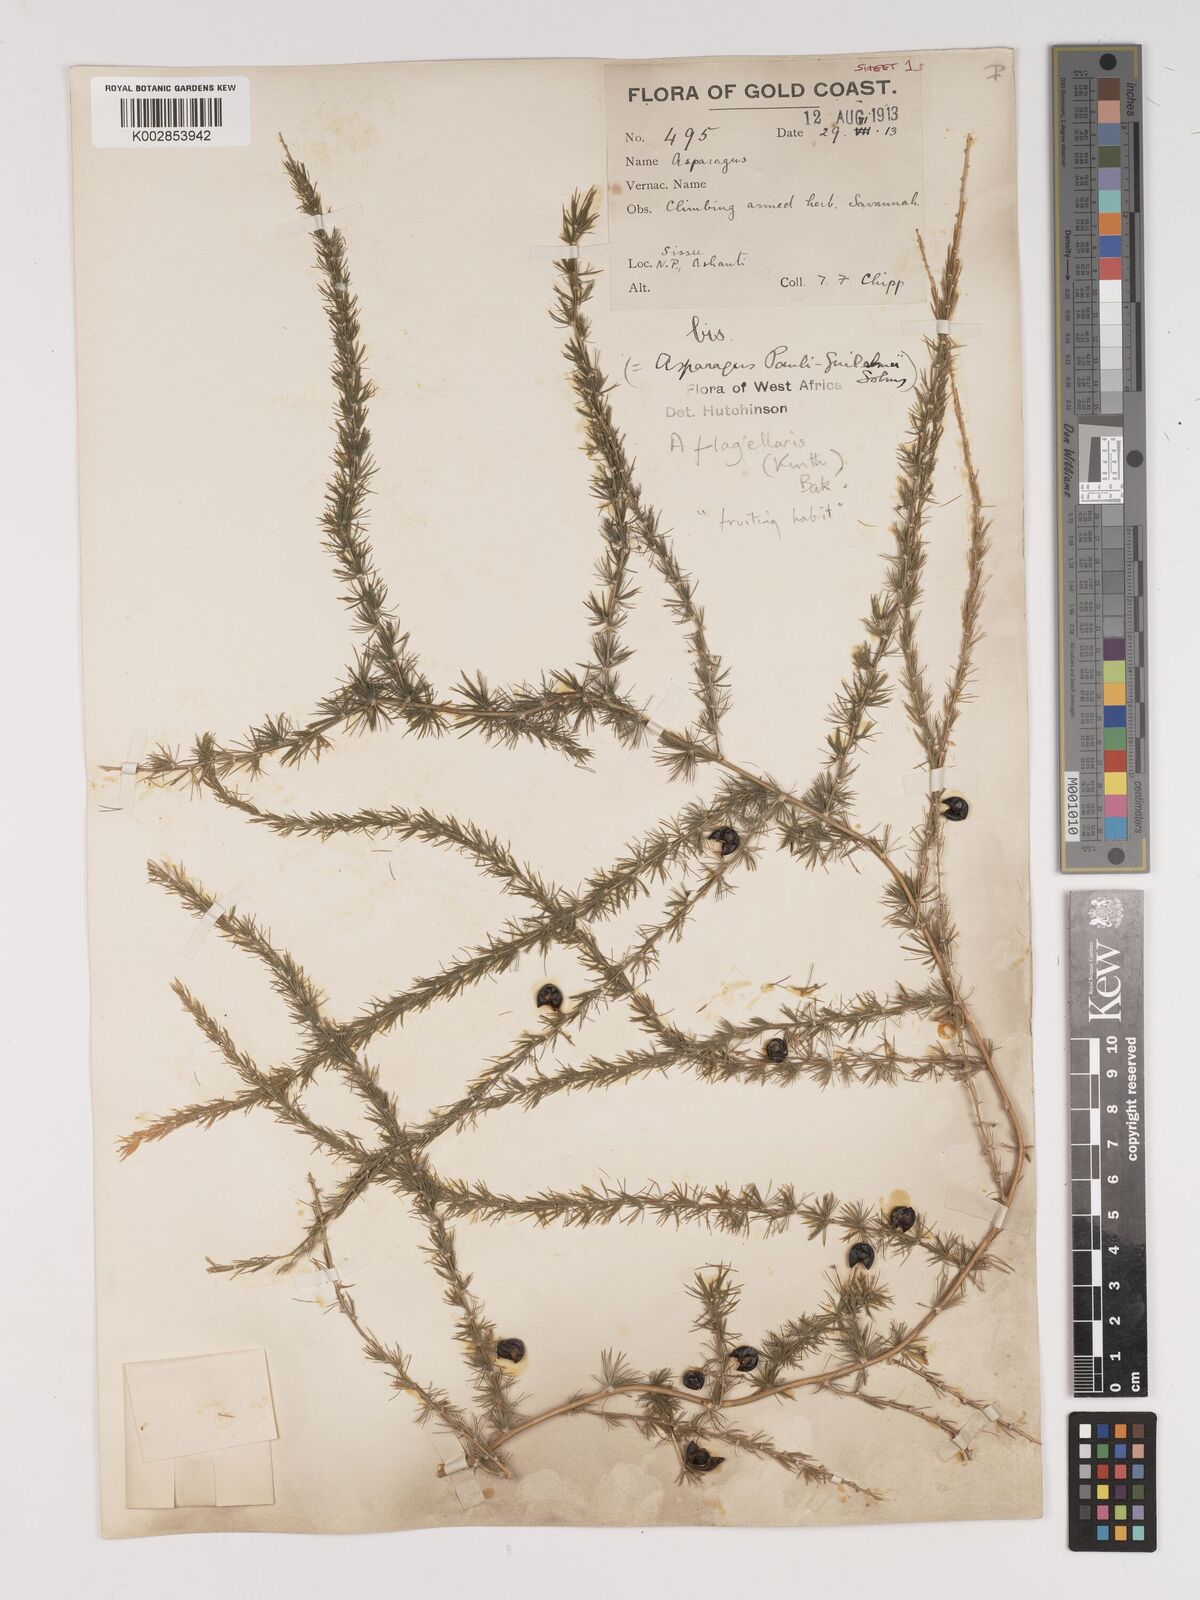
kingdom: Plantae
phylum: Tracheophyta
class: Liliopsida
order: Asparagales
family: Asparagaceae
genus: Asparagus
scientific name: Asparagus flagellaris
